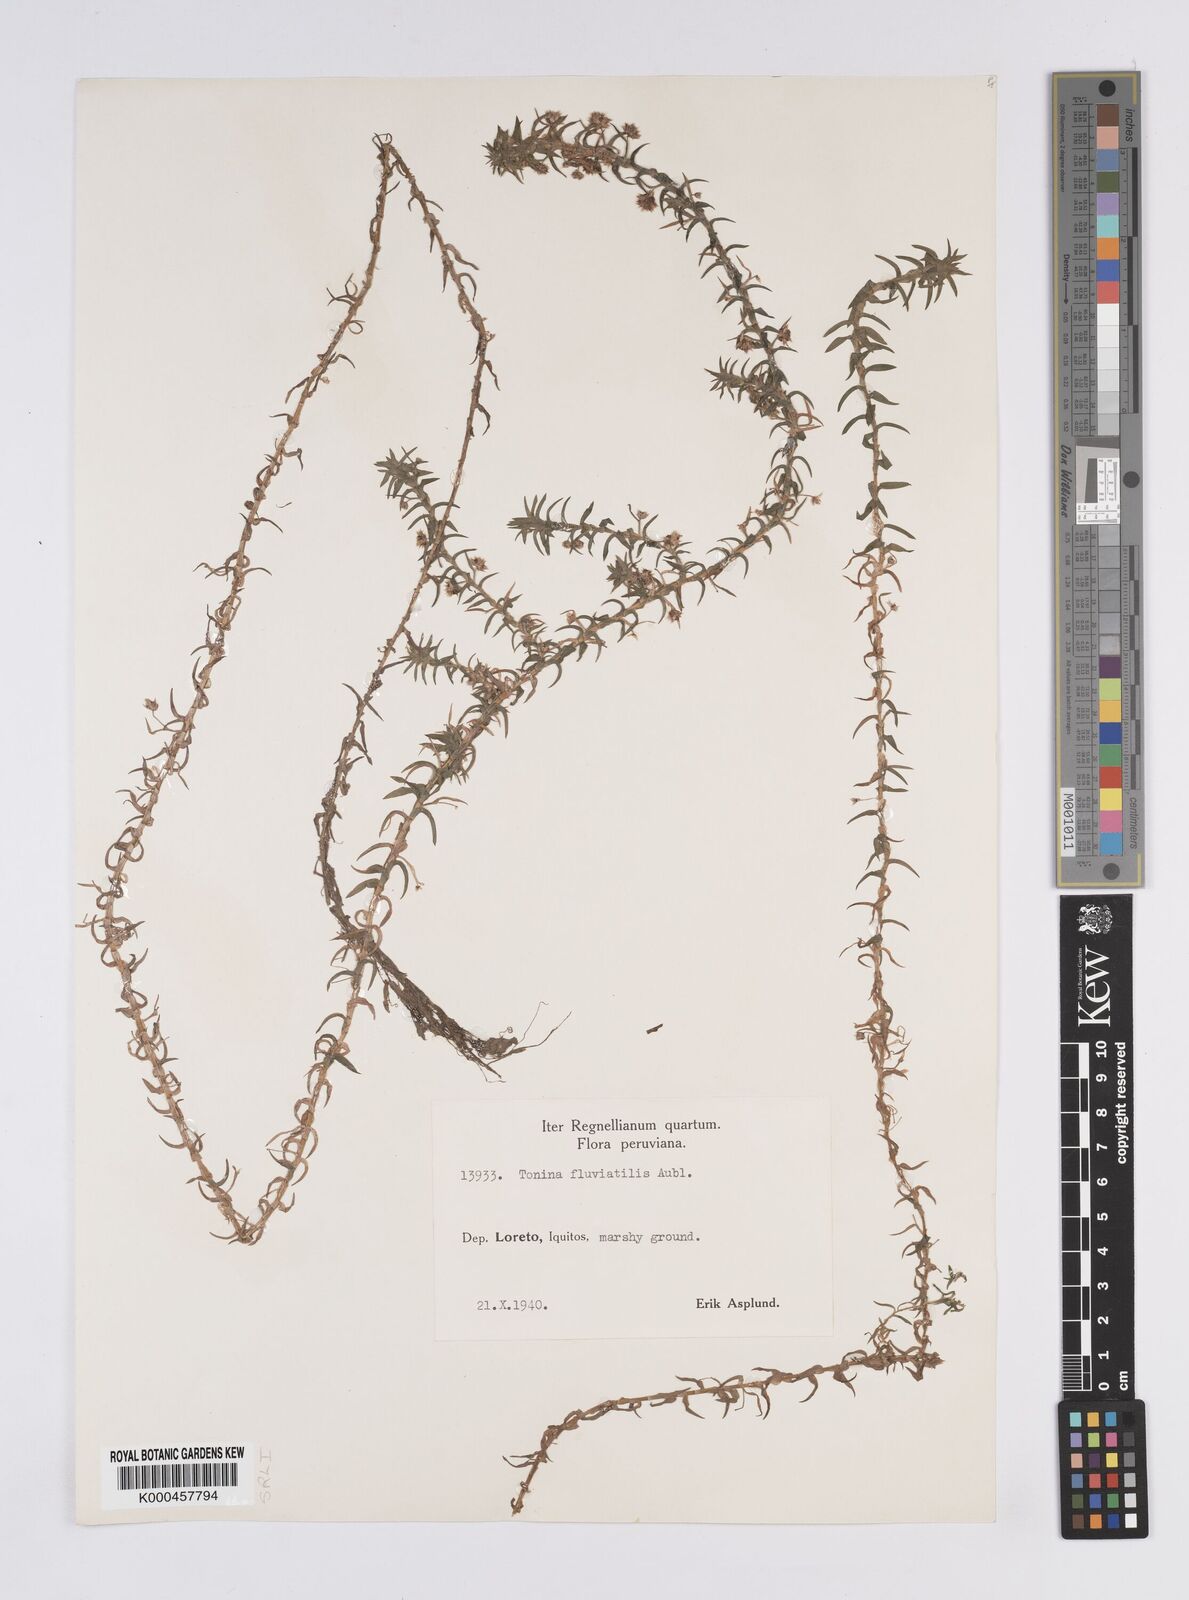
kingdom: Plantae
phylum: Tracheophyta
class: Liliopsida
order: Poales
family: Eriocaulaceae
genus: Paepalanthus
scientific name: Paepalanthus fluviatilis
